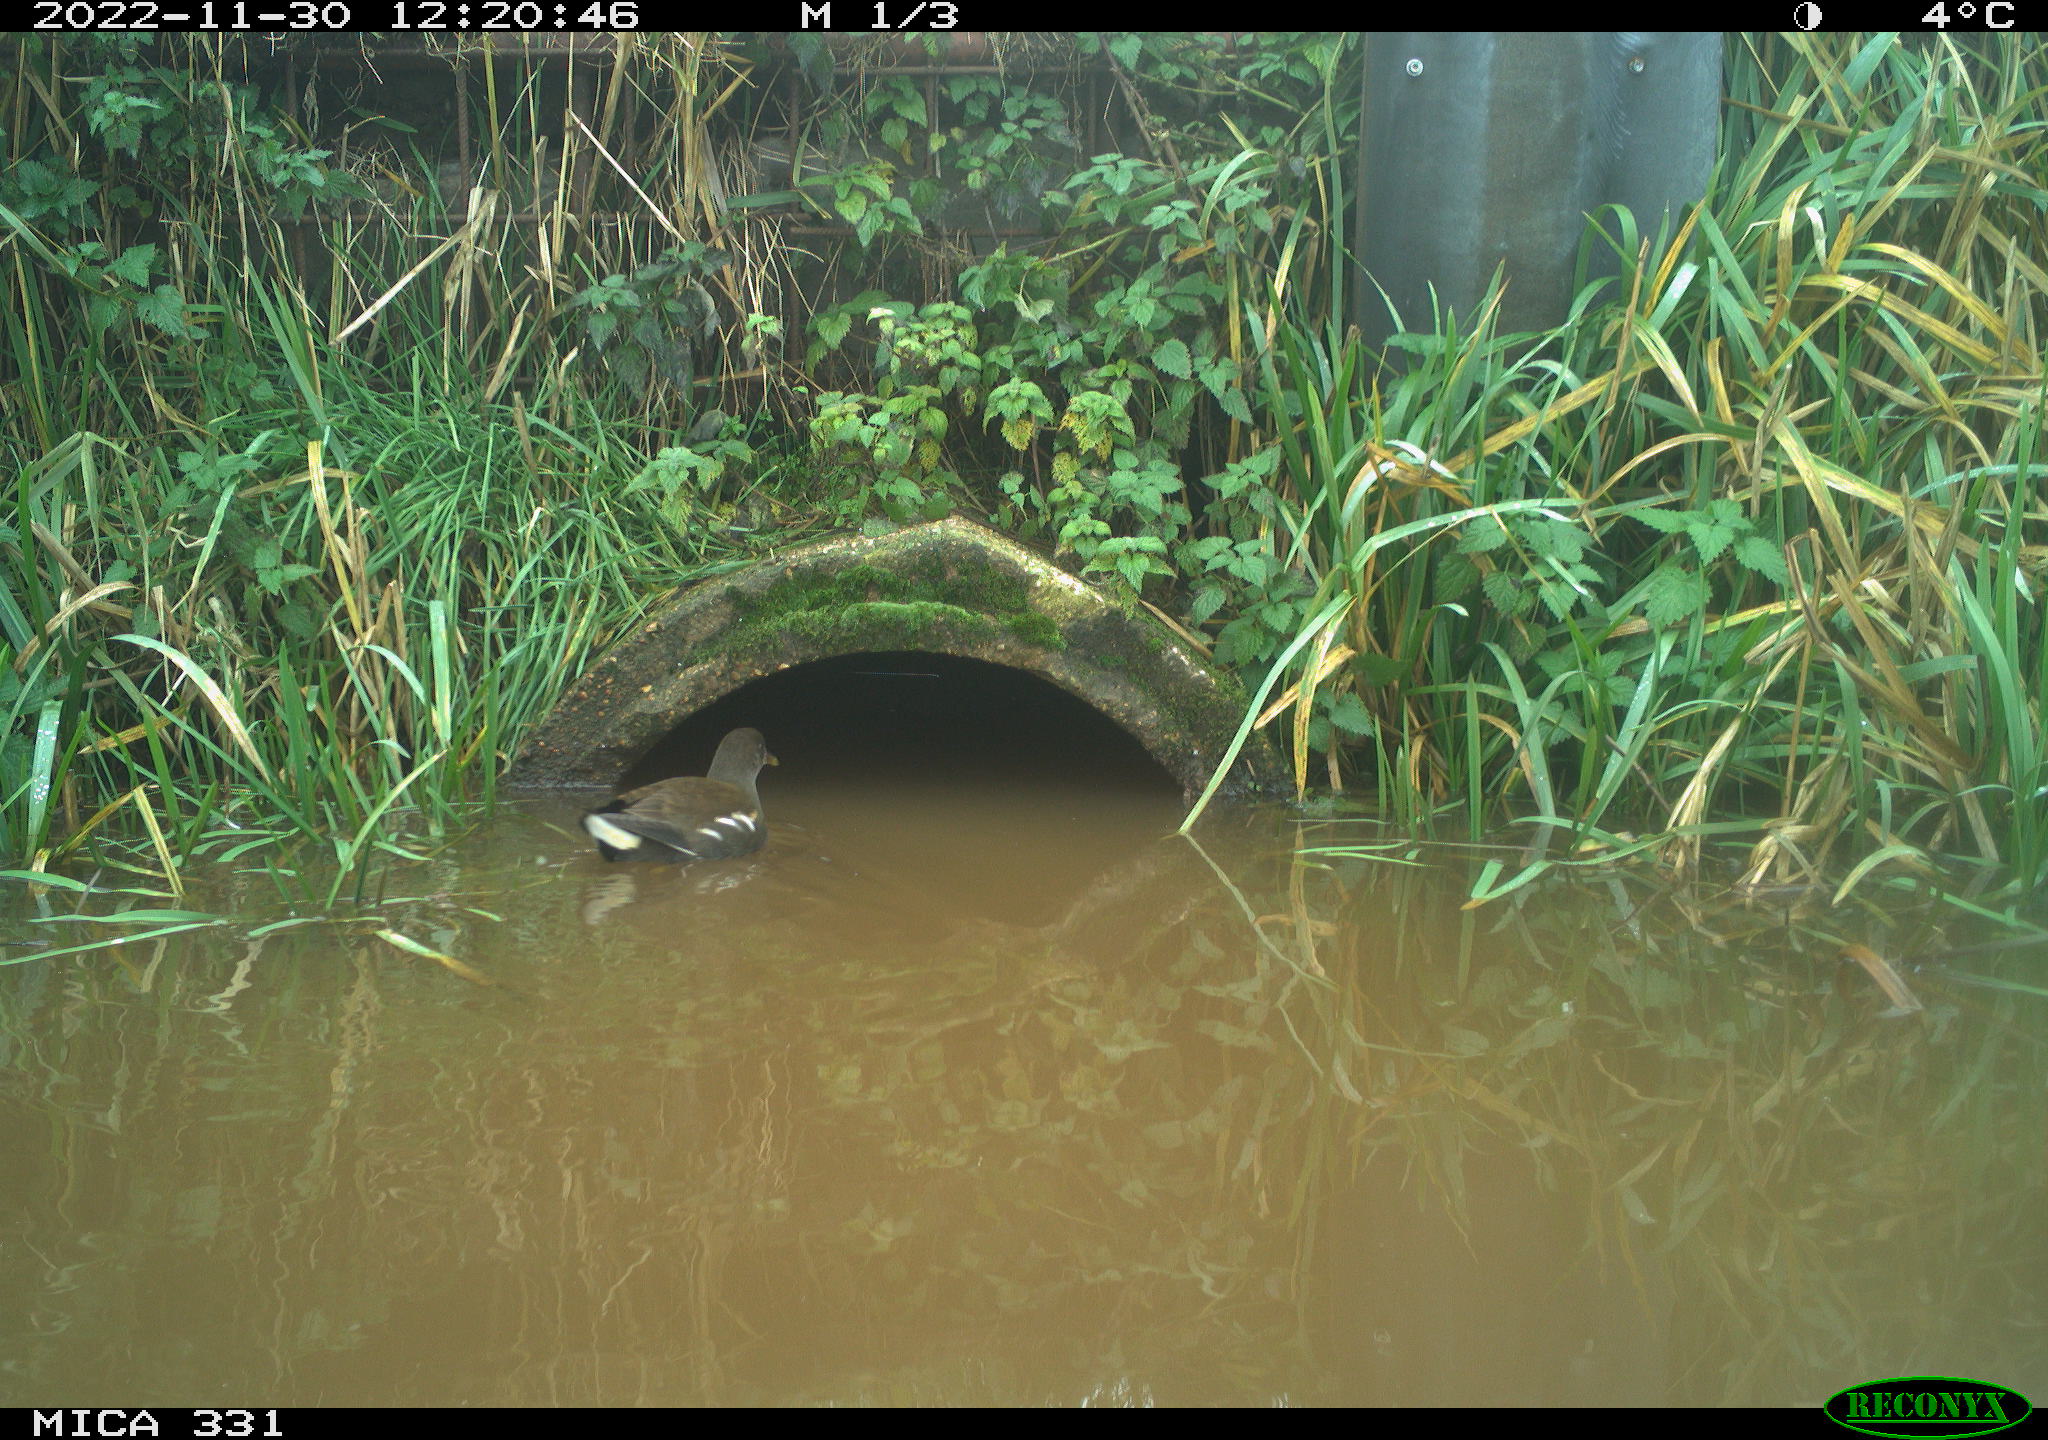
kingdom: Animalia
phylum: Chordata
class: Aves
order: Gruiformes
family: Rallidae
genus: Gallinula
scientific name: Gallinula chloropus
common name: Common moorhen
